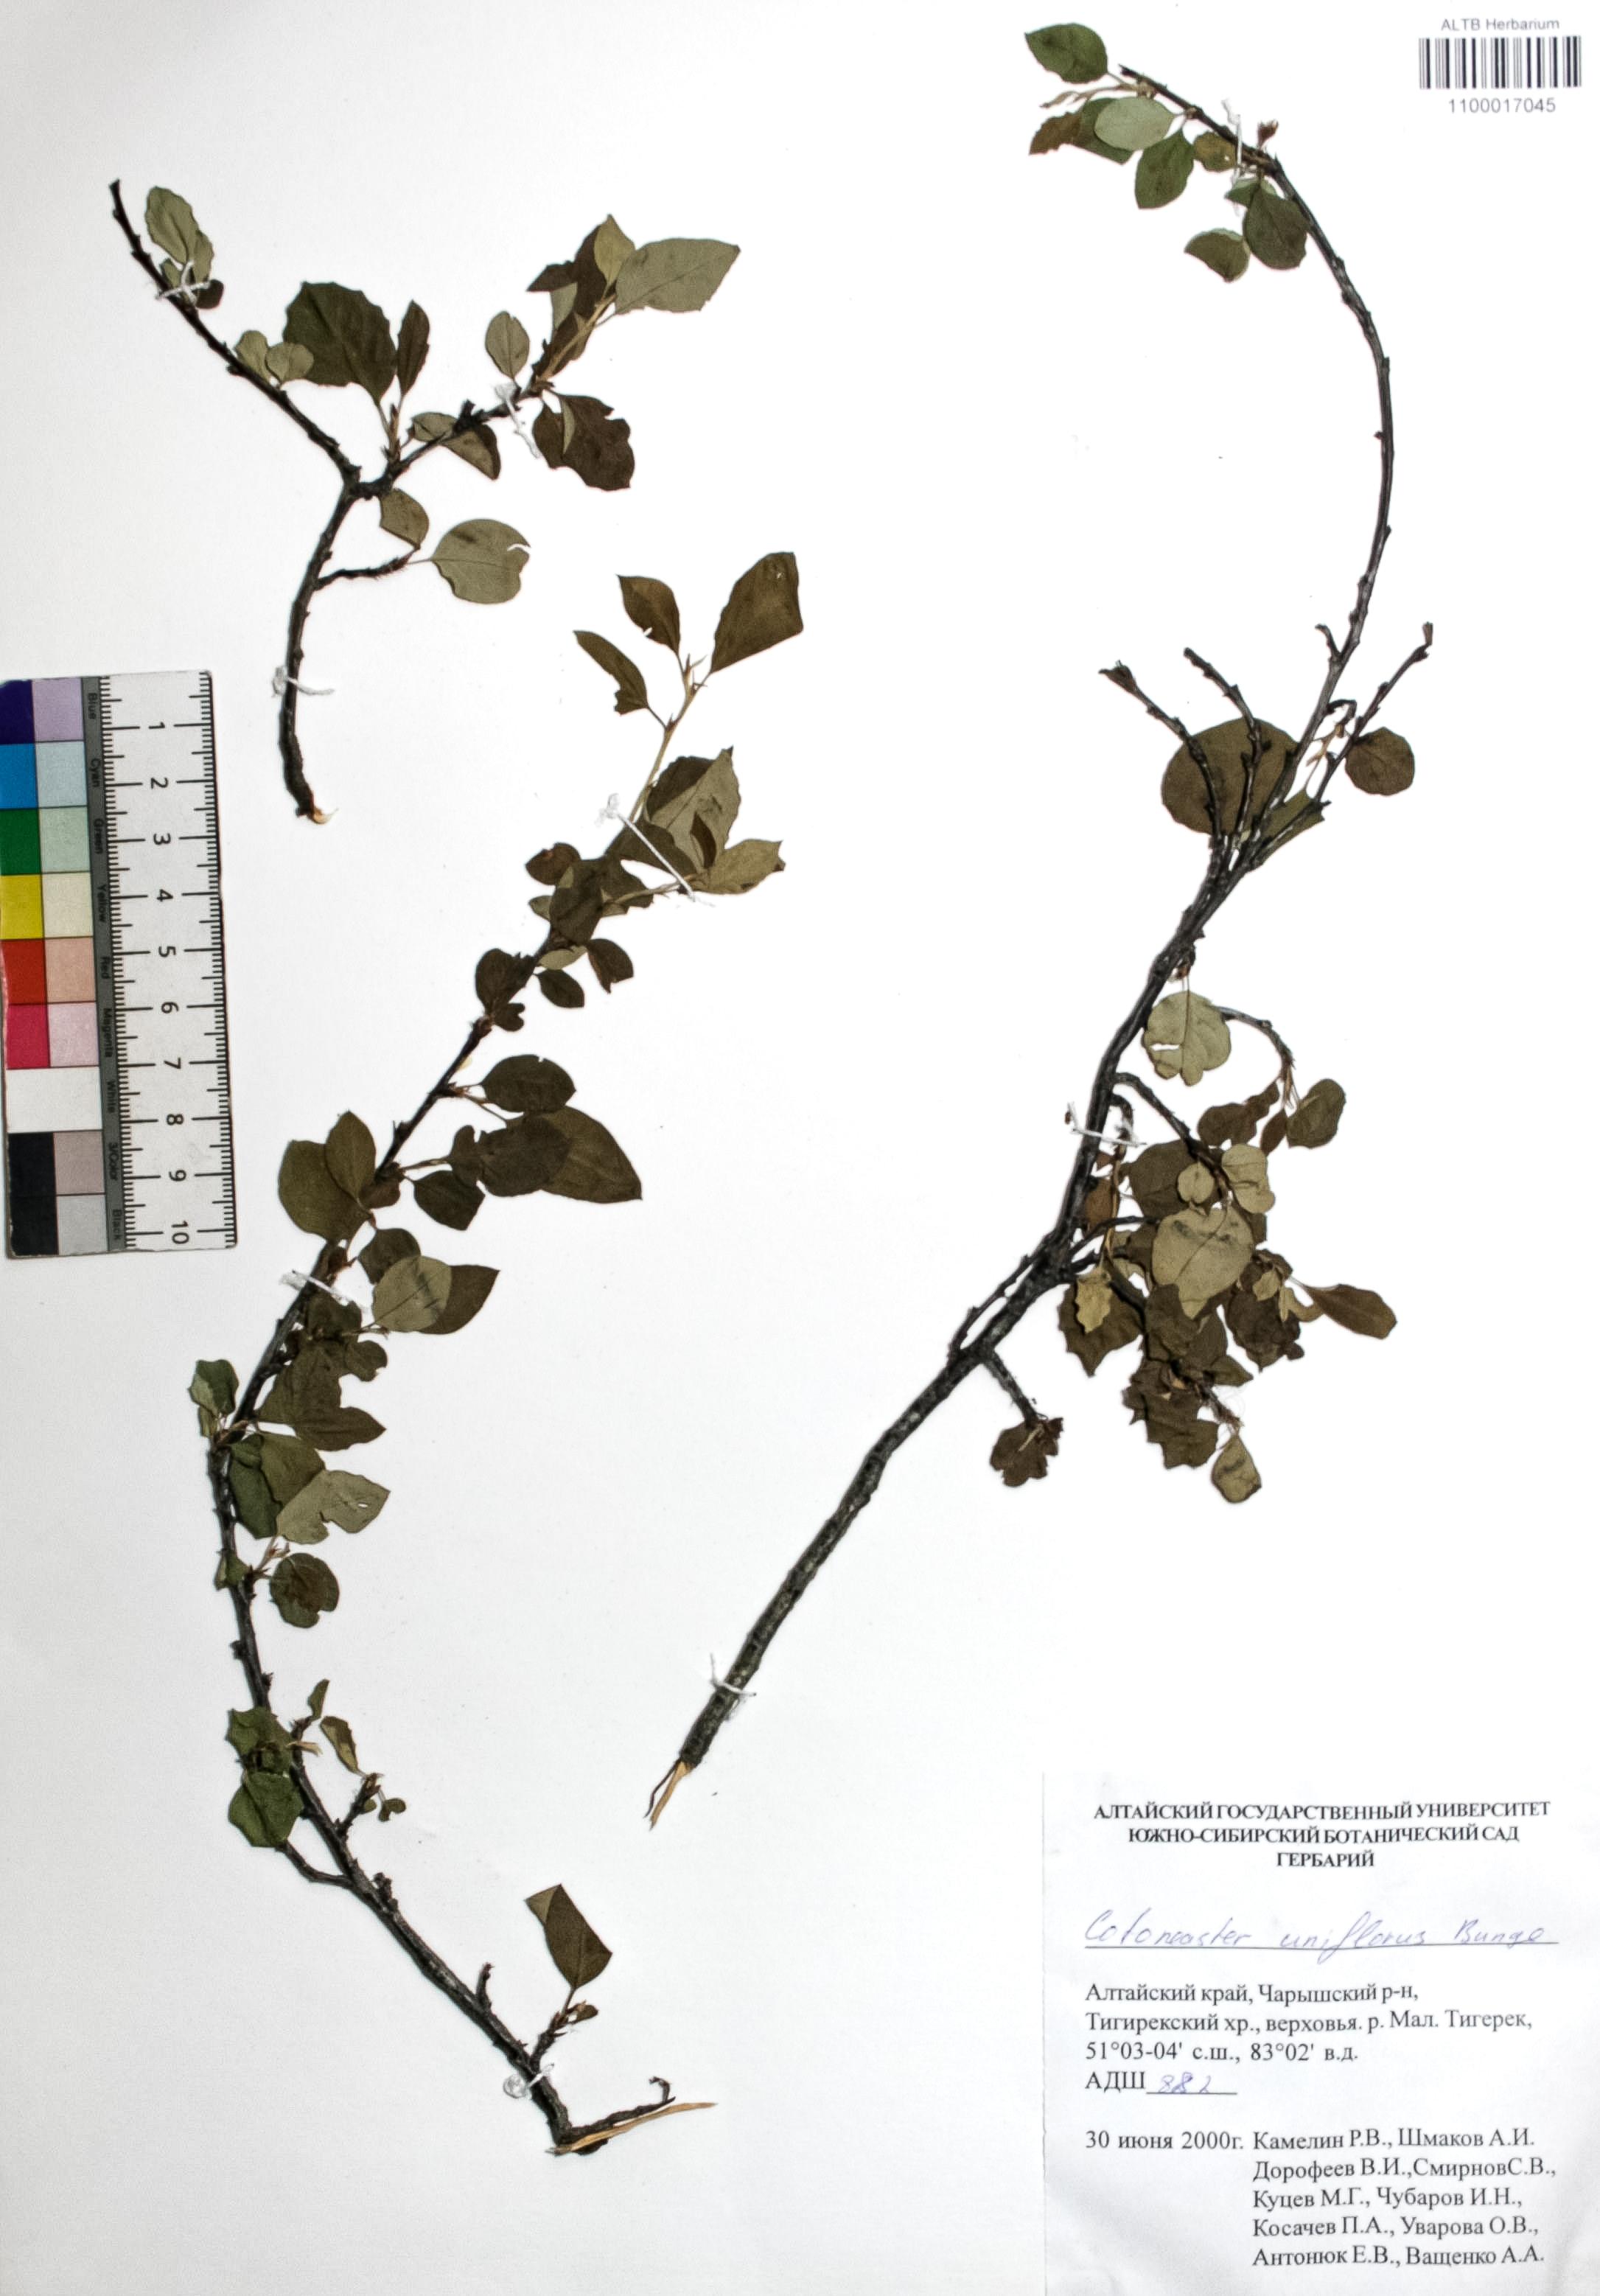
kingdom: Plantae
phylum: Tracheophyta
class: Magnoliopsida
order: Rosales
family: Rosaceae
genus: Cotoneaster
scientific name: Cotoneaster uniflorus
